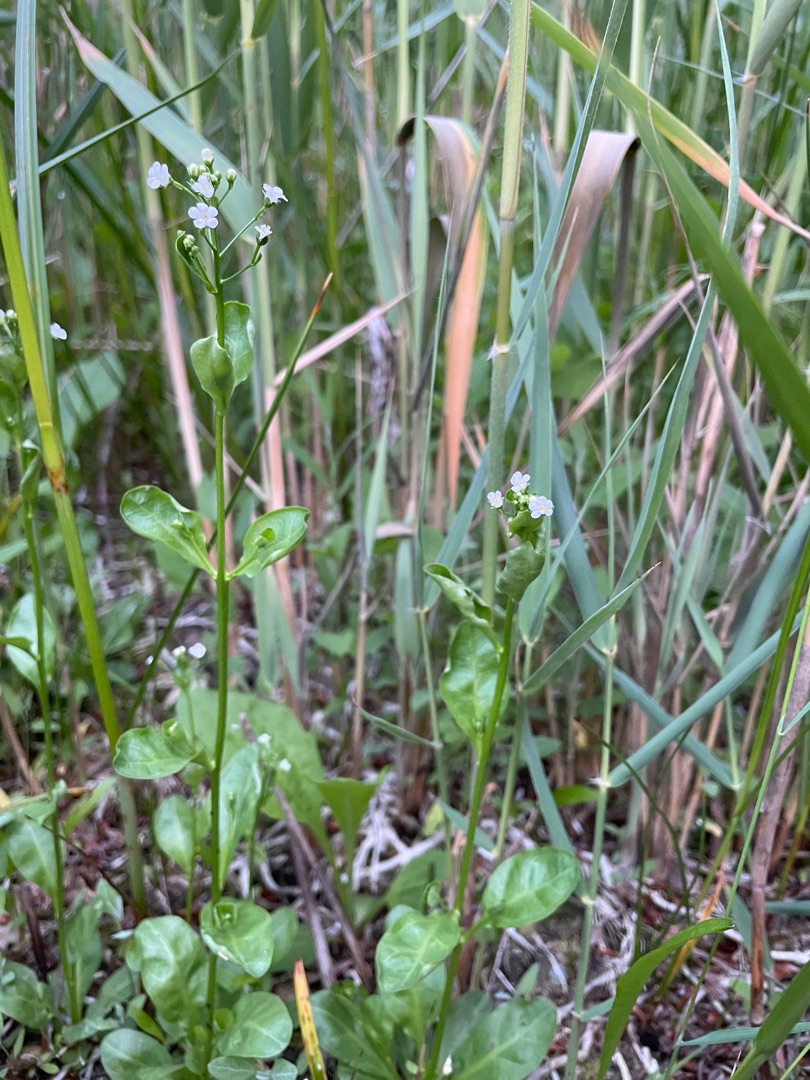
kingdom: Plantae
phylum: Tracheophyta
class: Magnoliopsida
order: Ericales
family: Primulaceae
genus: Samolus
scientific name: Samolus valerandi
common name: Samel
